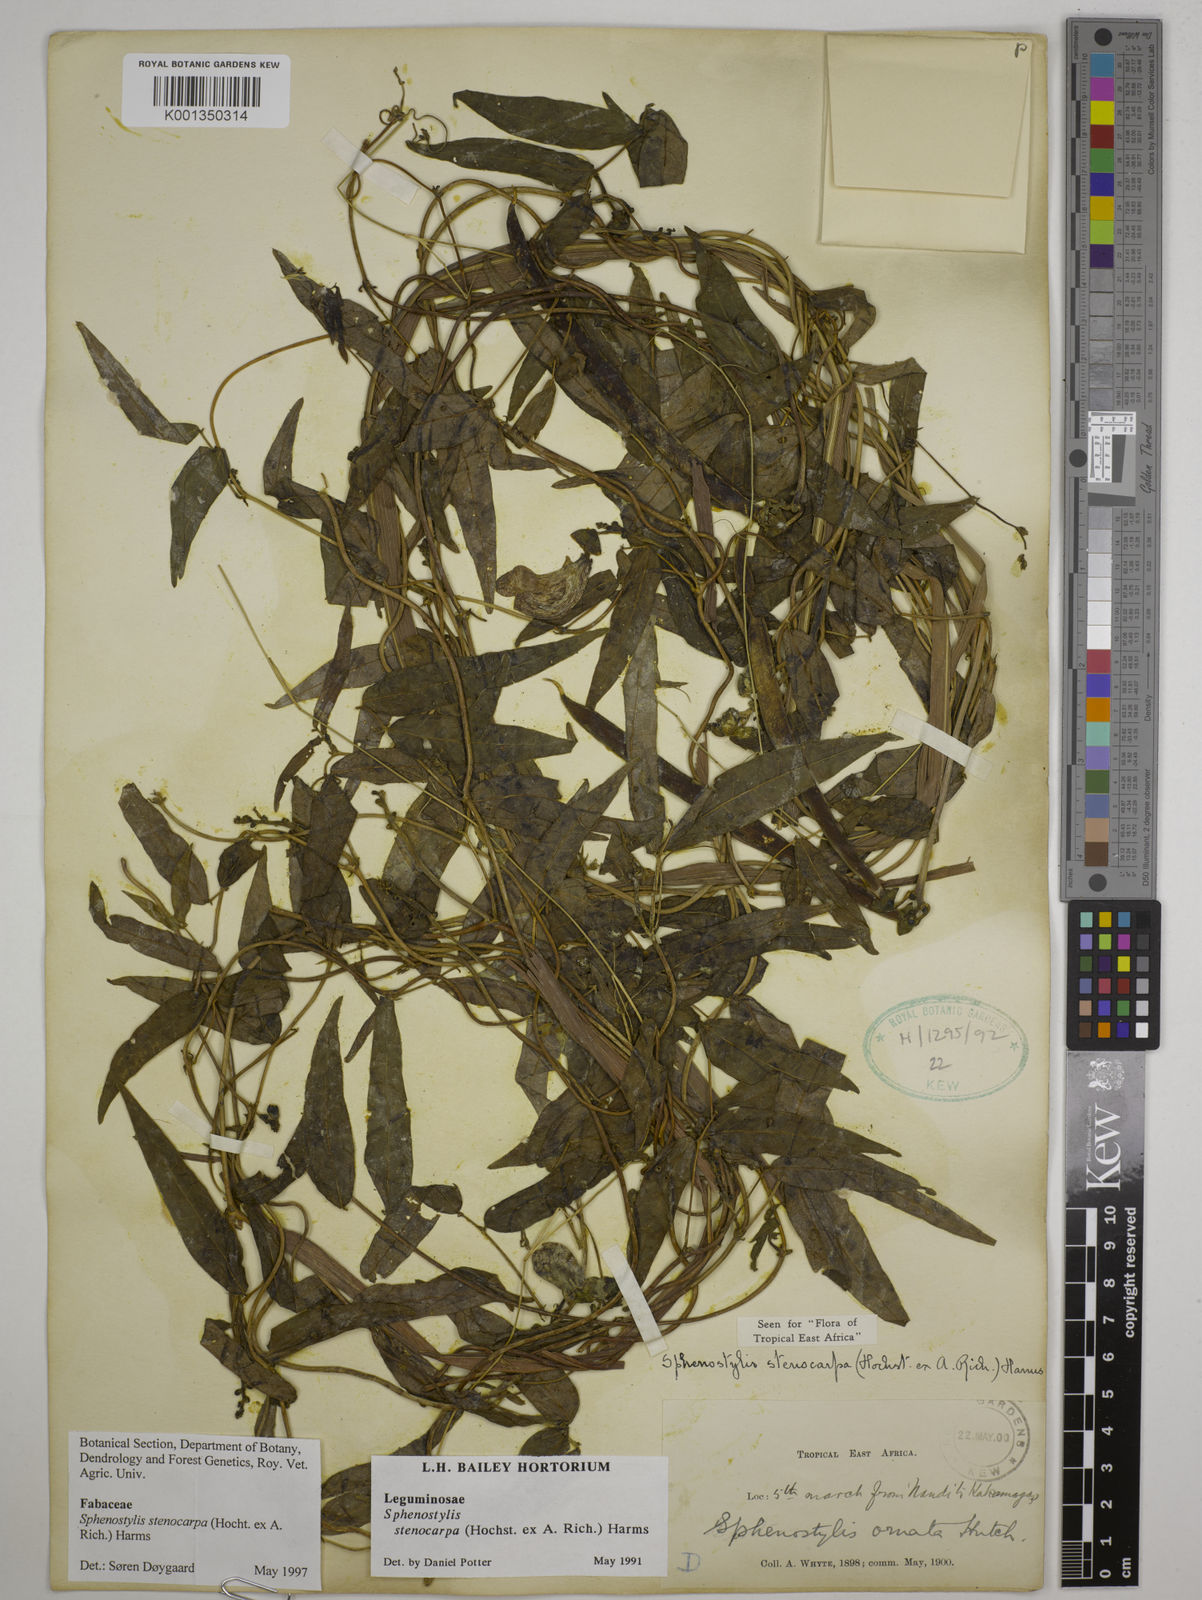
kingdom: Plantae
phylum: Tracheophyta
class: Magnoliopsida
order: Fabales
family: Fabaceae
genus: Sphenostylis
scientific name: Sphenostylis stenocarpa
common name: Yam-pea
